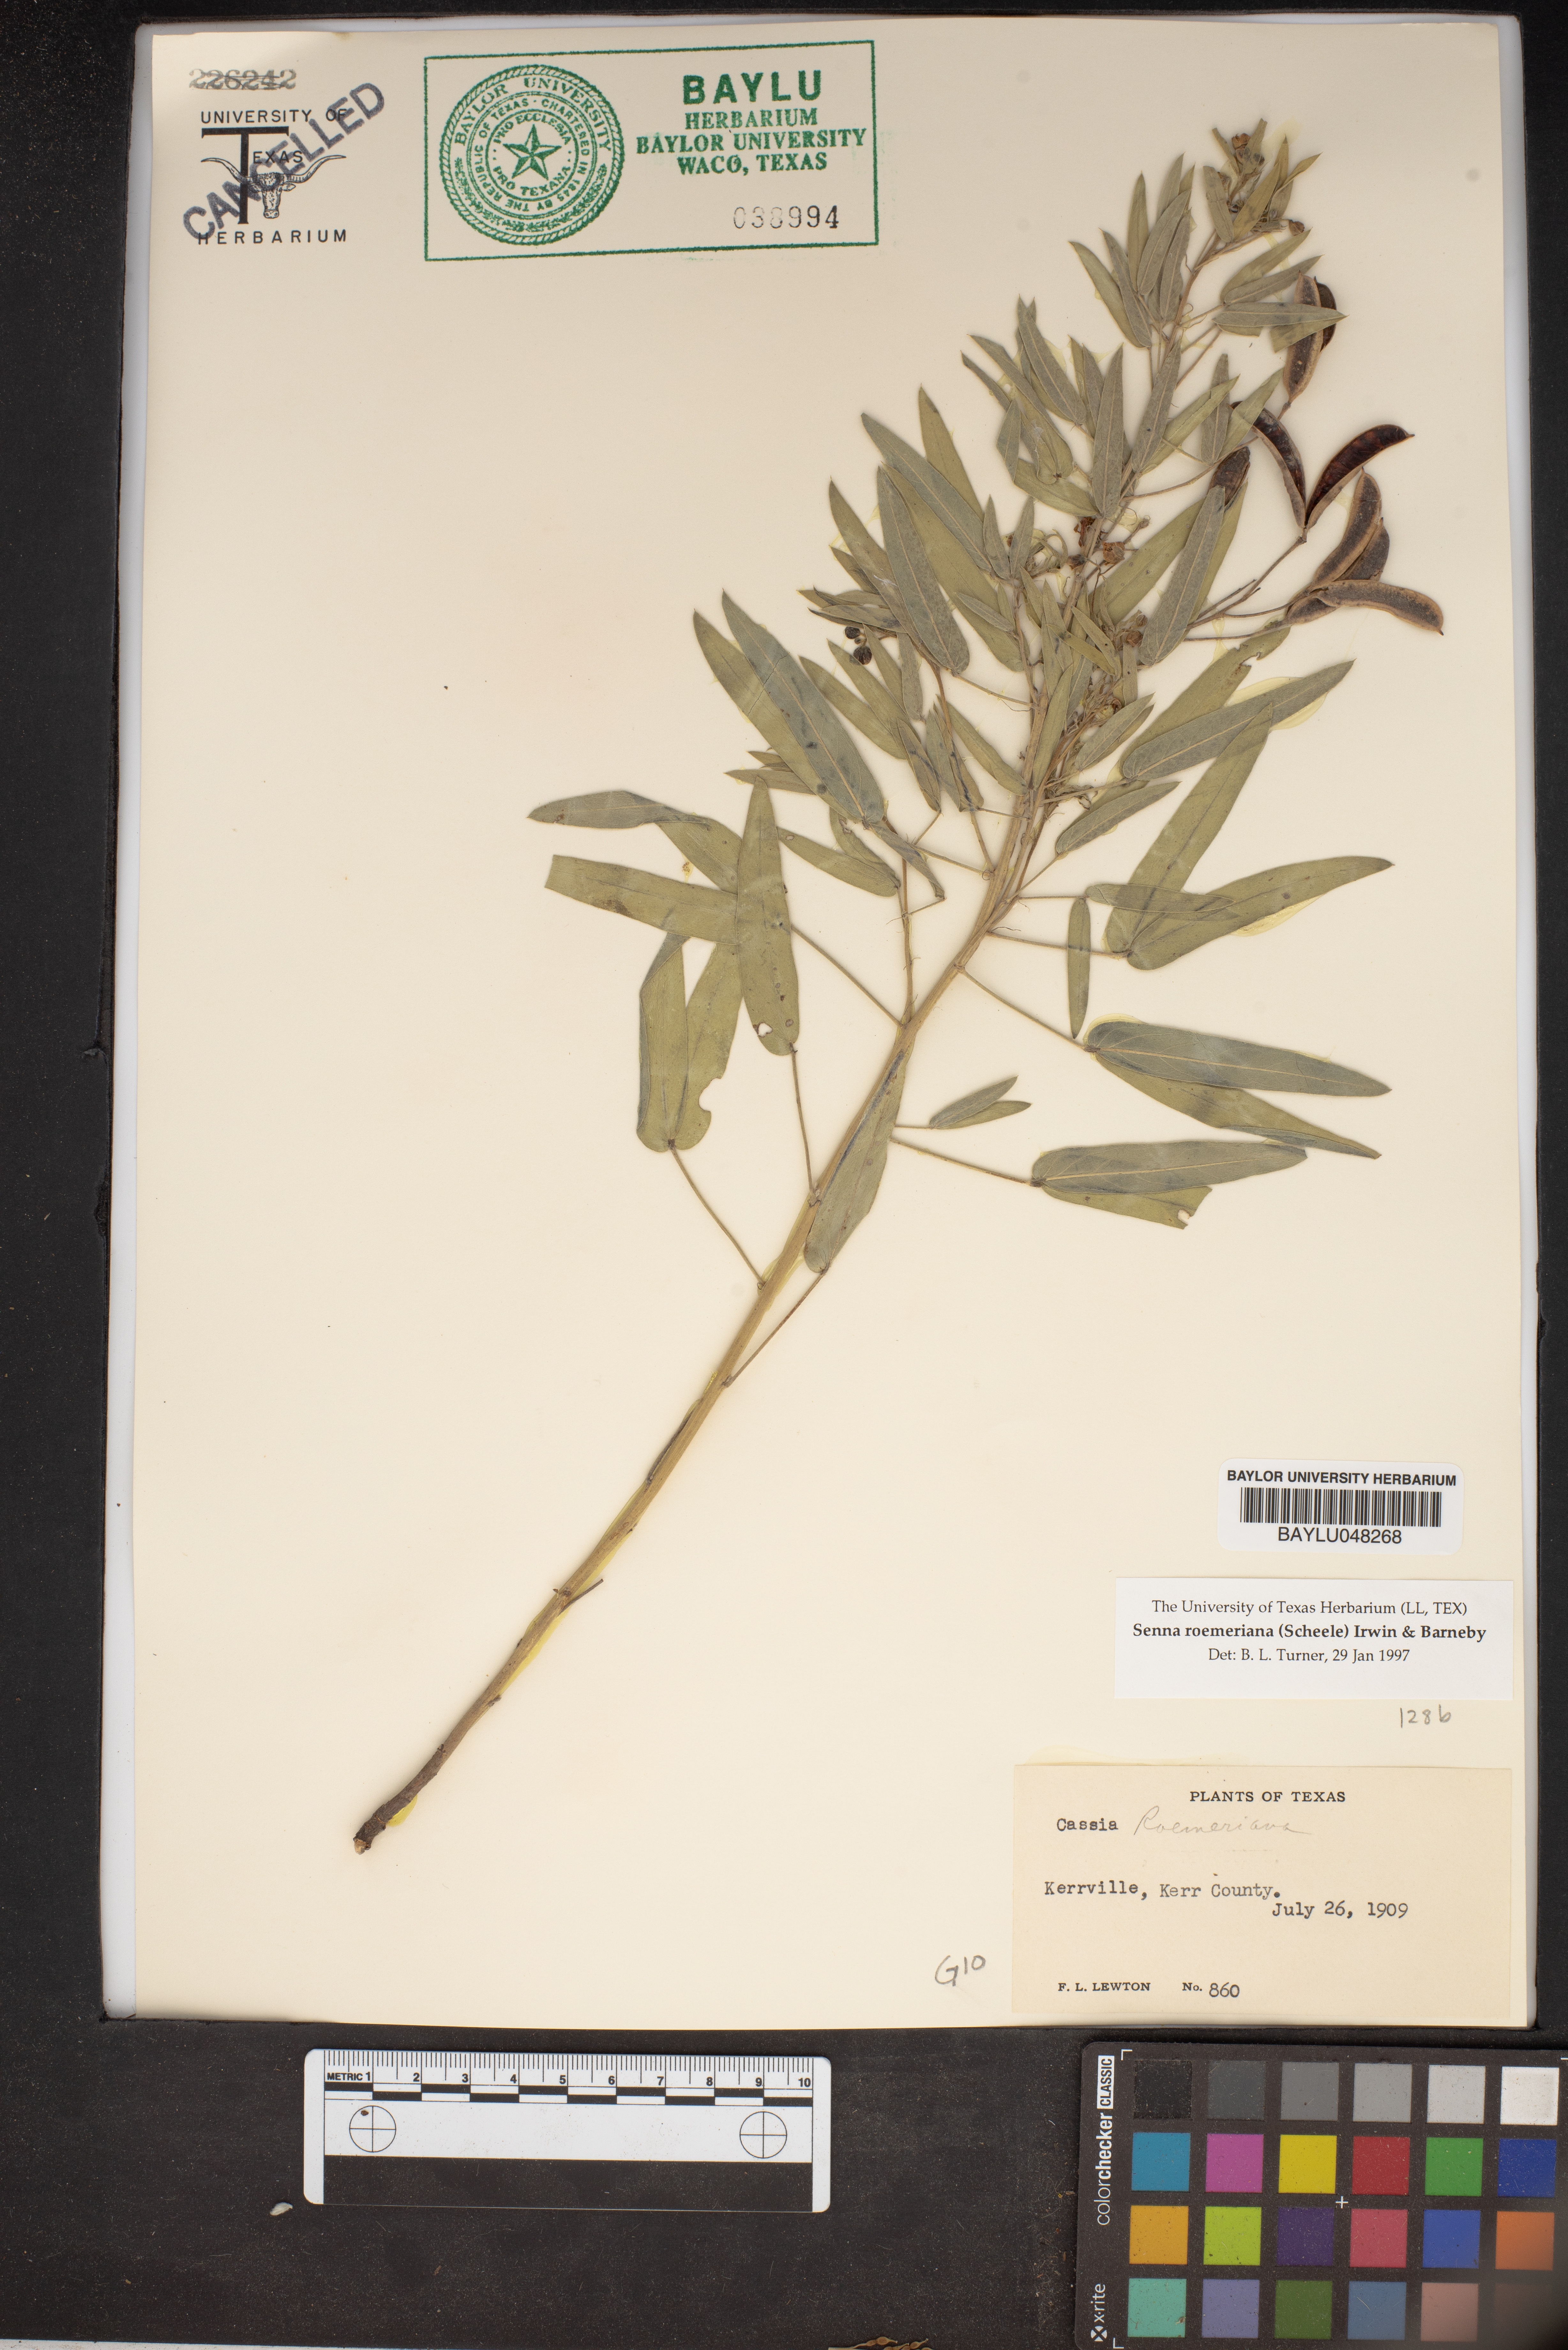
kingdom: Plantae
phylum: Tracheophyta
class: Magnoliopsida
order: Fabales
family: Fabaceae
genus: Senna
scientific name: Senna roemeriana
